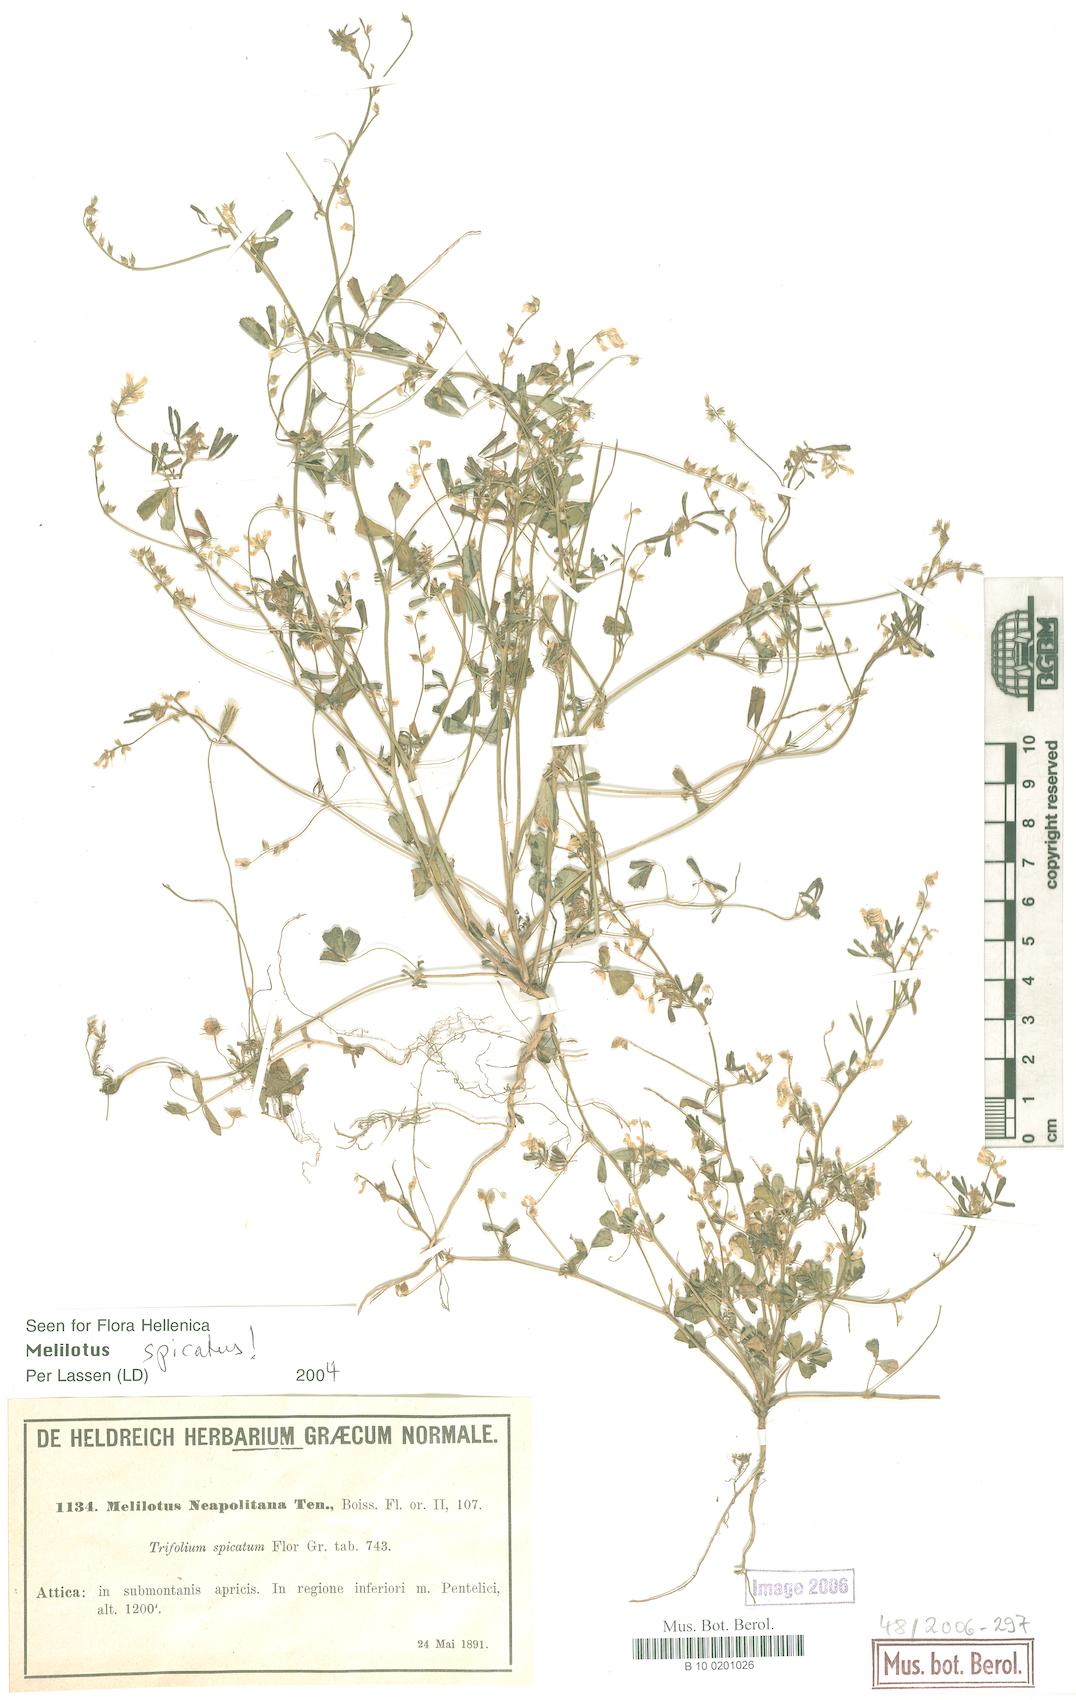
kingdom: Plantae
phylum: Tracheophyta
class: Magnoliopsida
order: Fabales
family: Fabaceae
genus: Melilotus
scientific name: Melilotus neapolitanus
